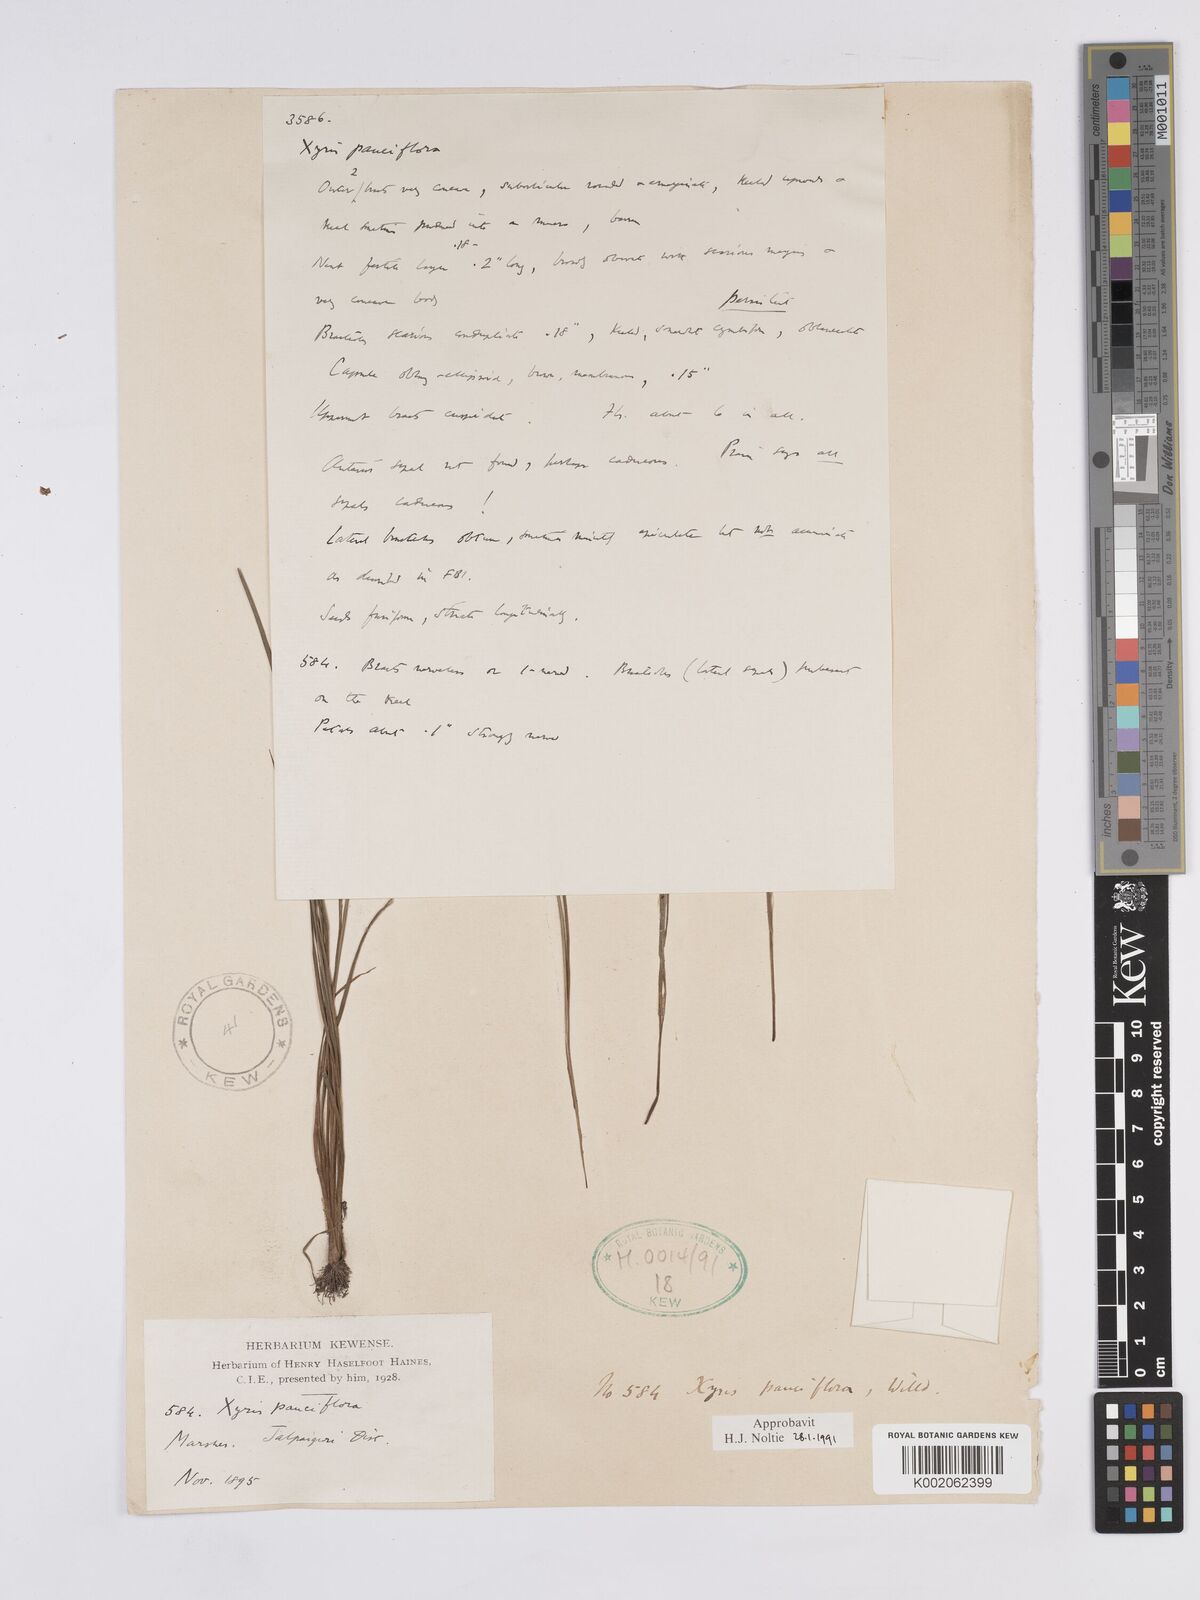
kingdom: Plantae
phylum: Tracheophyta
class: Liliopsida
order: Poales
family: Xyridaceae
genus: Xyris
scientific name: Xyris pauciflora
